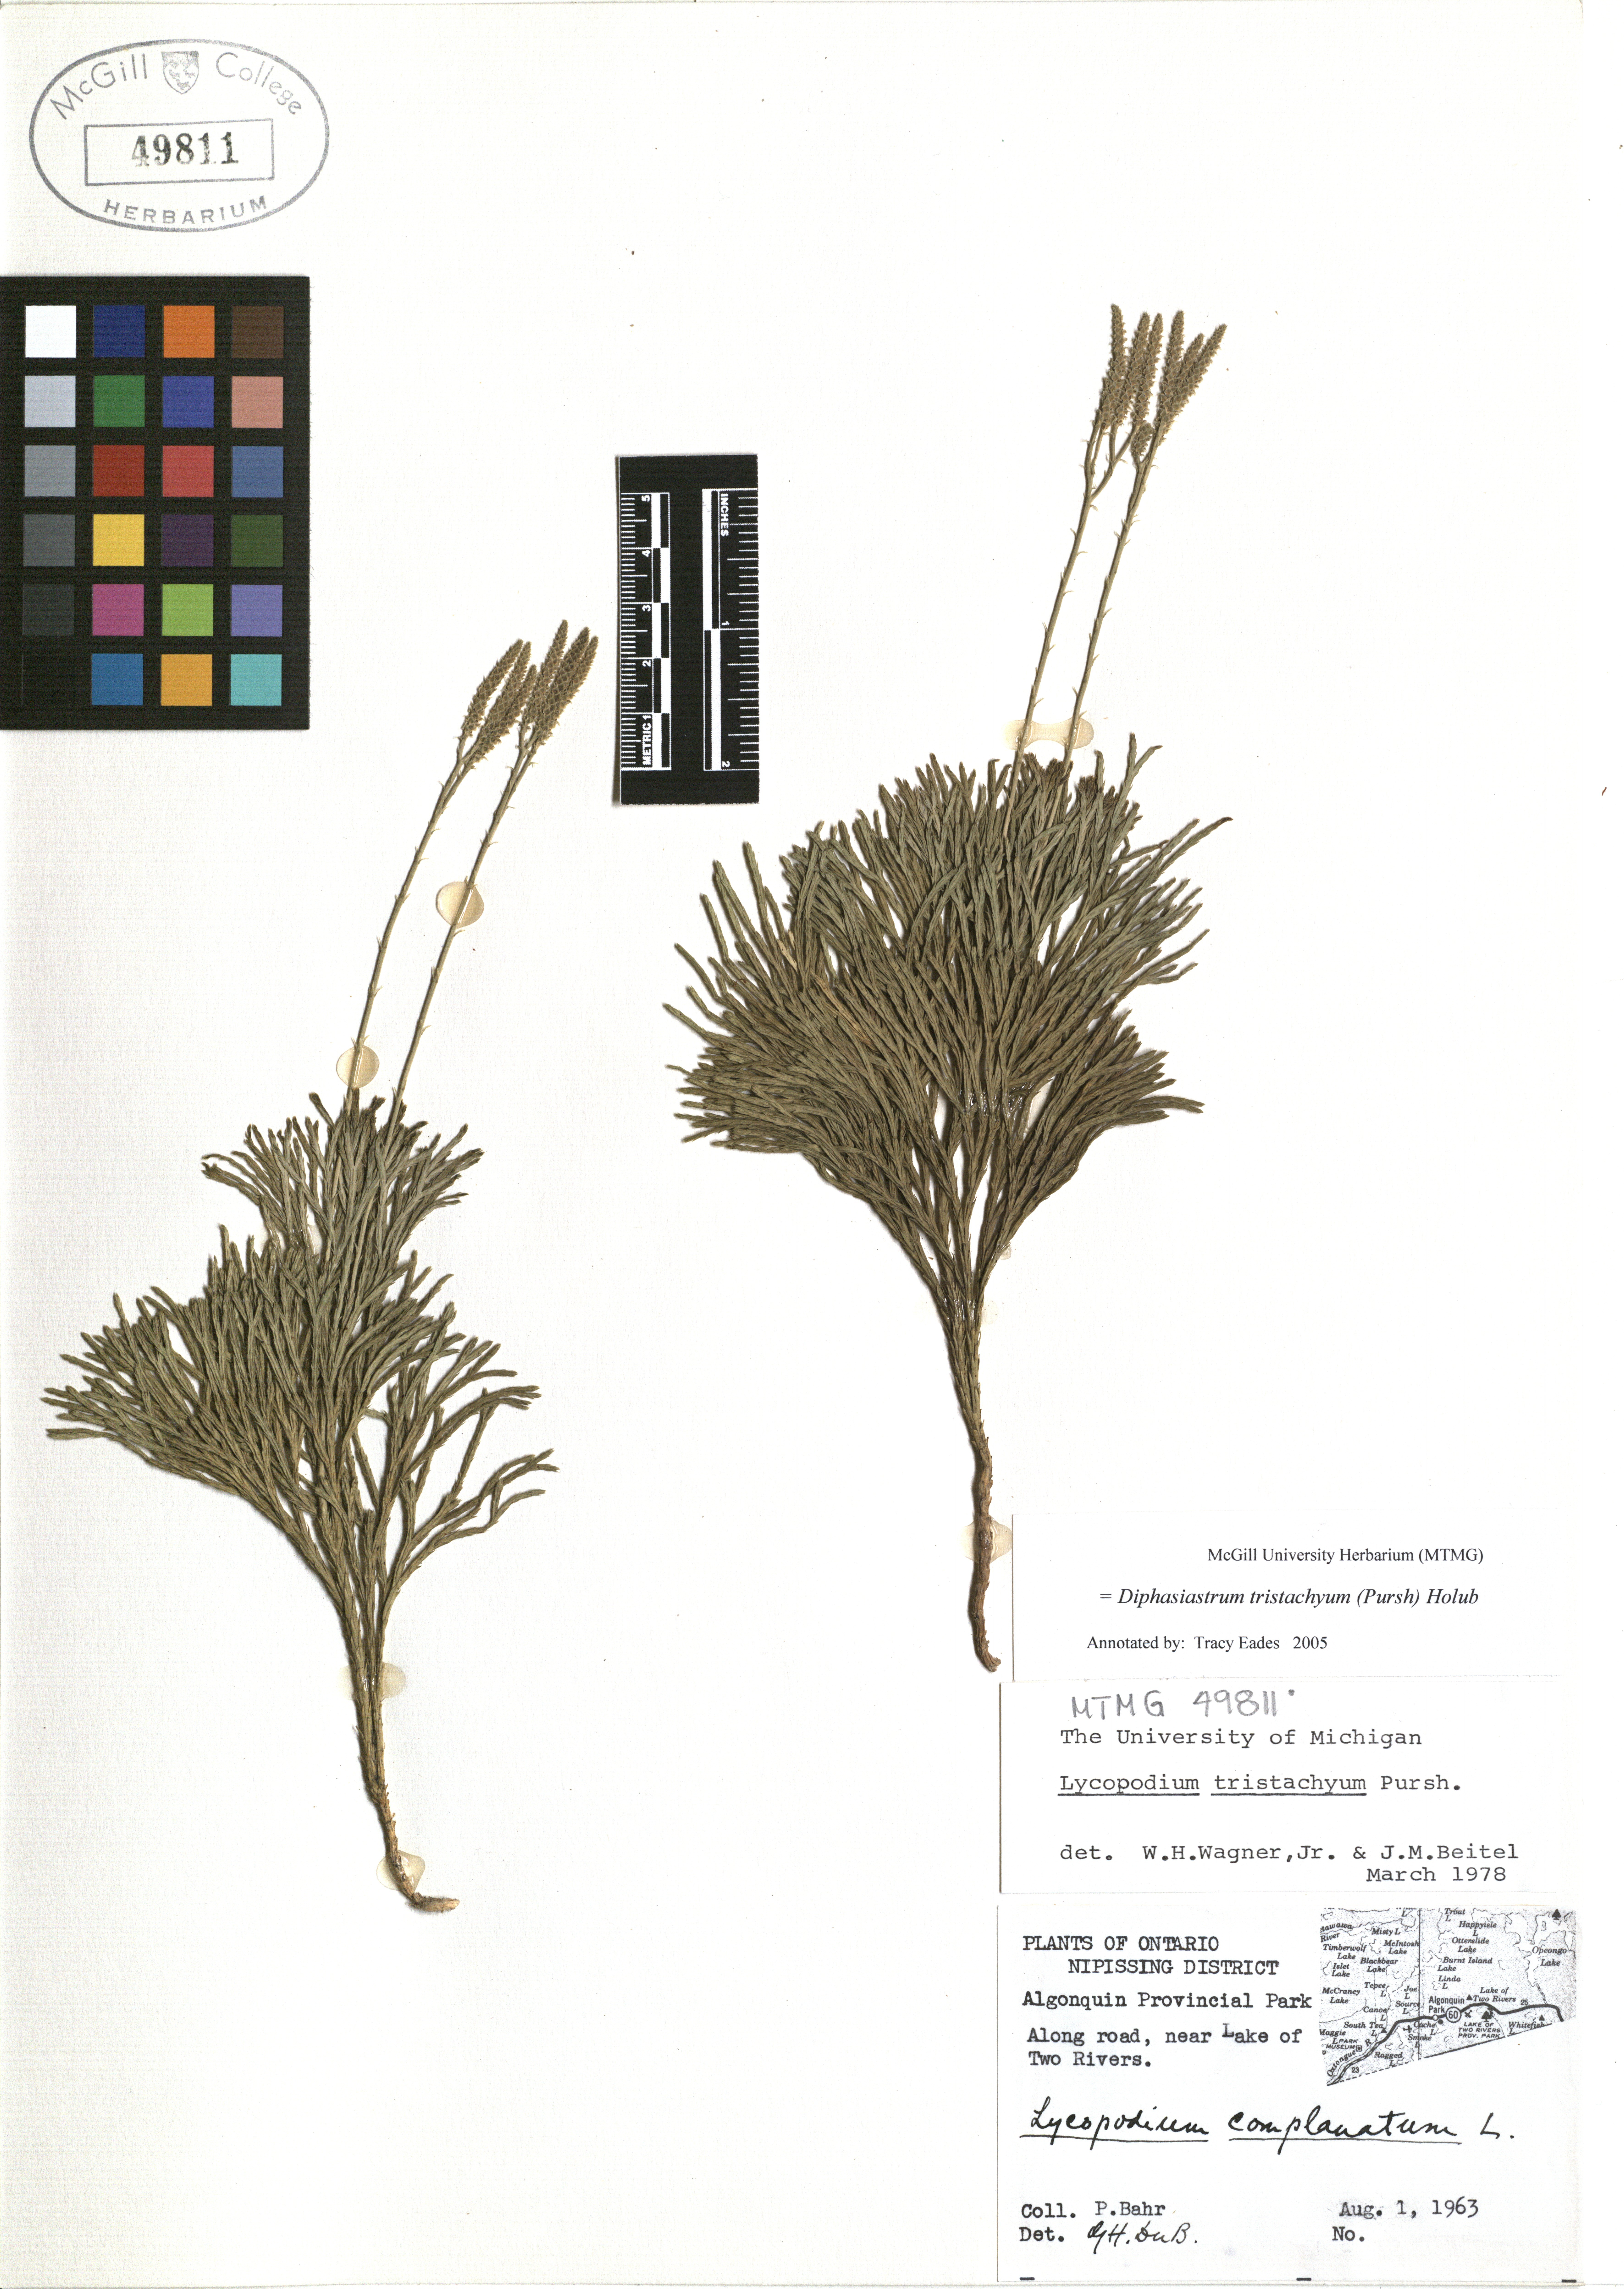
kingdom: Plantae
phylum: Tracheophyta
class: Lycopodiopsida
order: Lycopodiales
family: Lycopodiaceae
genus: Diphasiastrum
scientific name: Diphasiastrum tristachyum
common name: Blue ground-cedar
